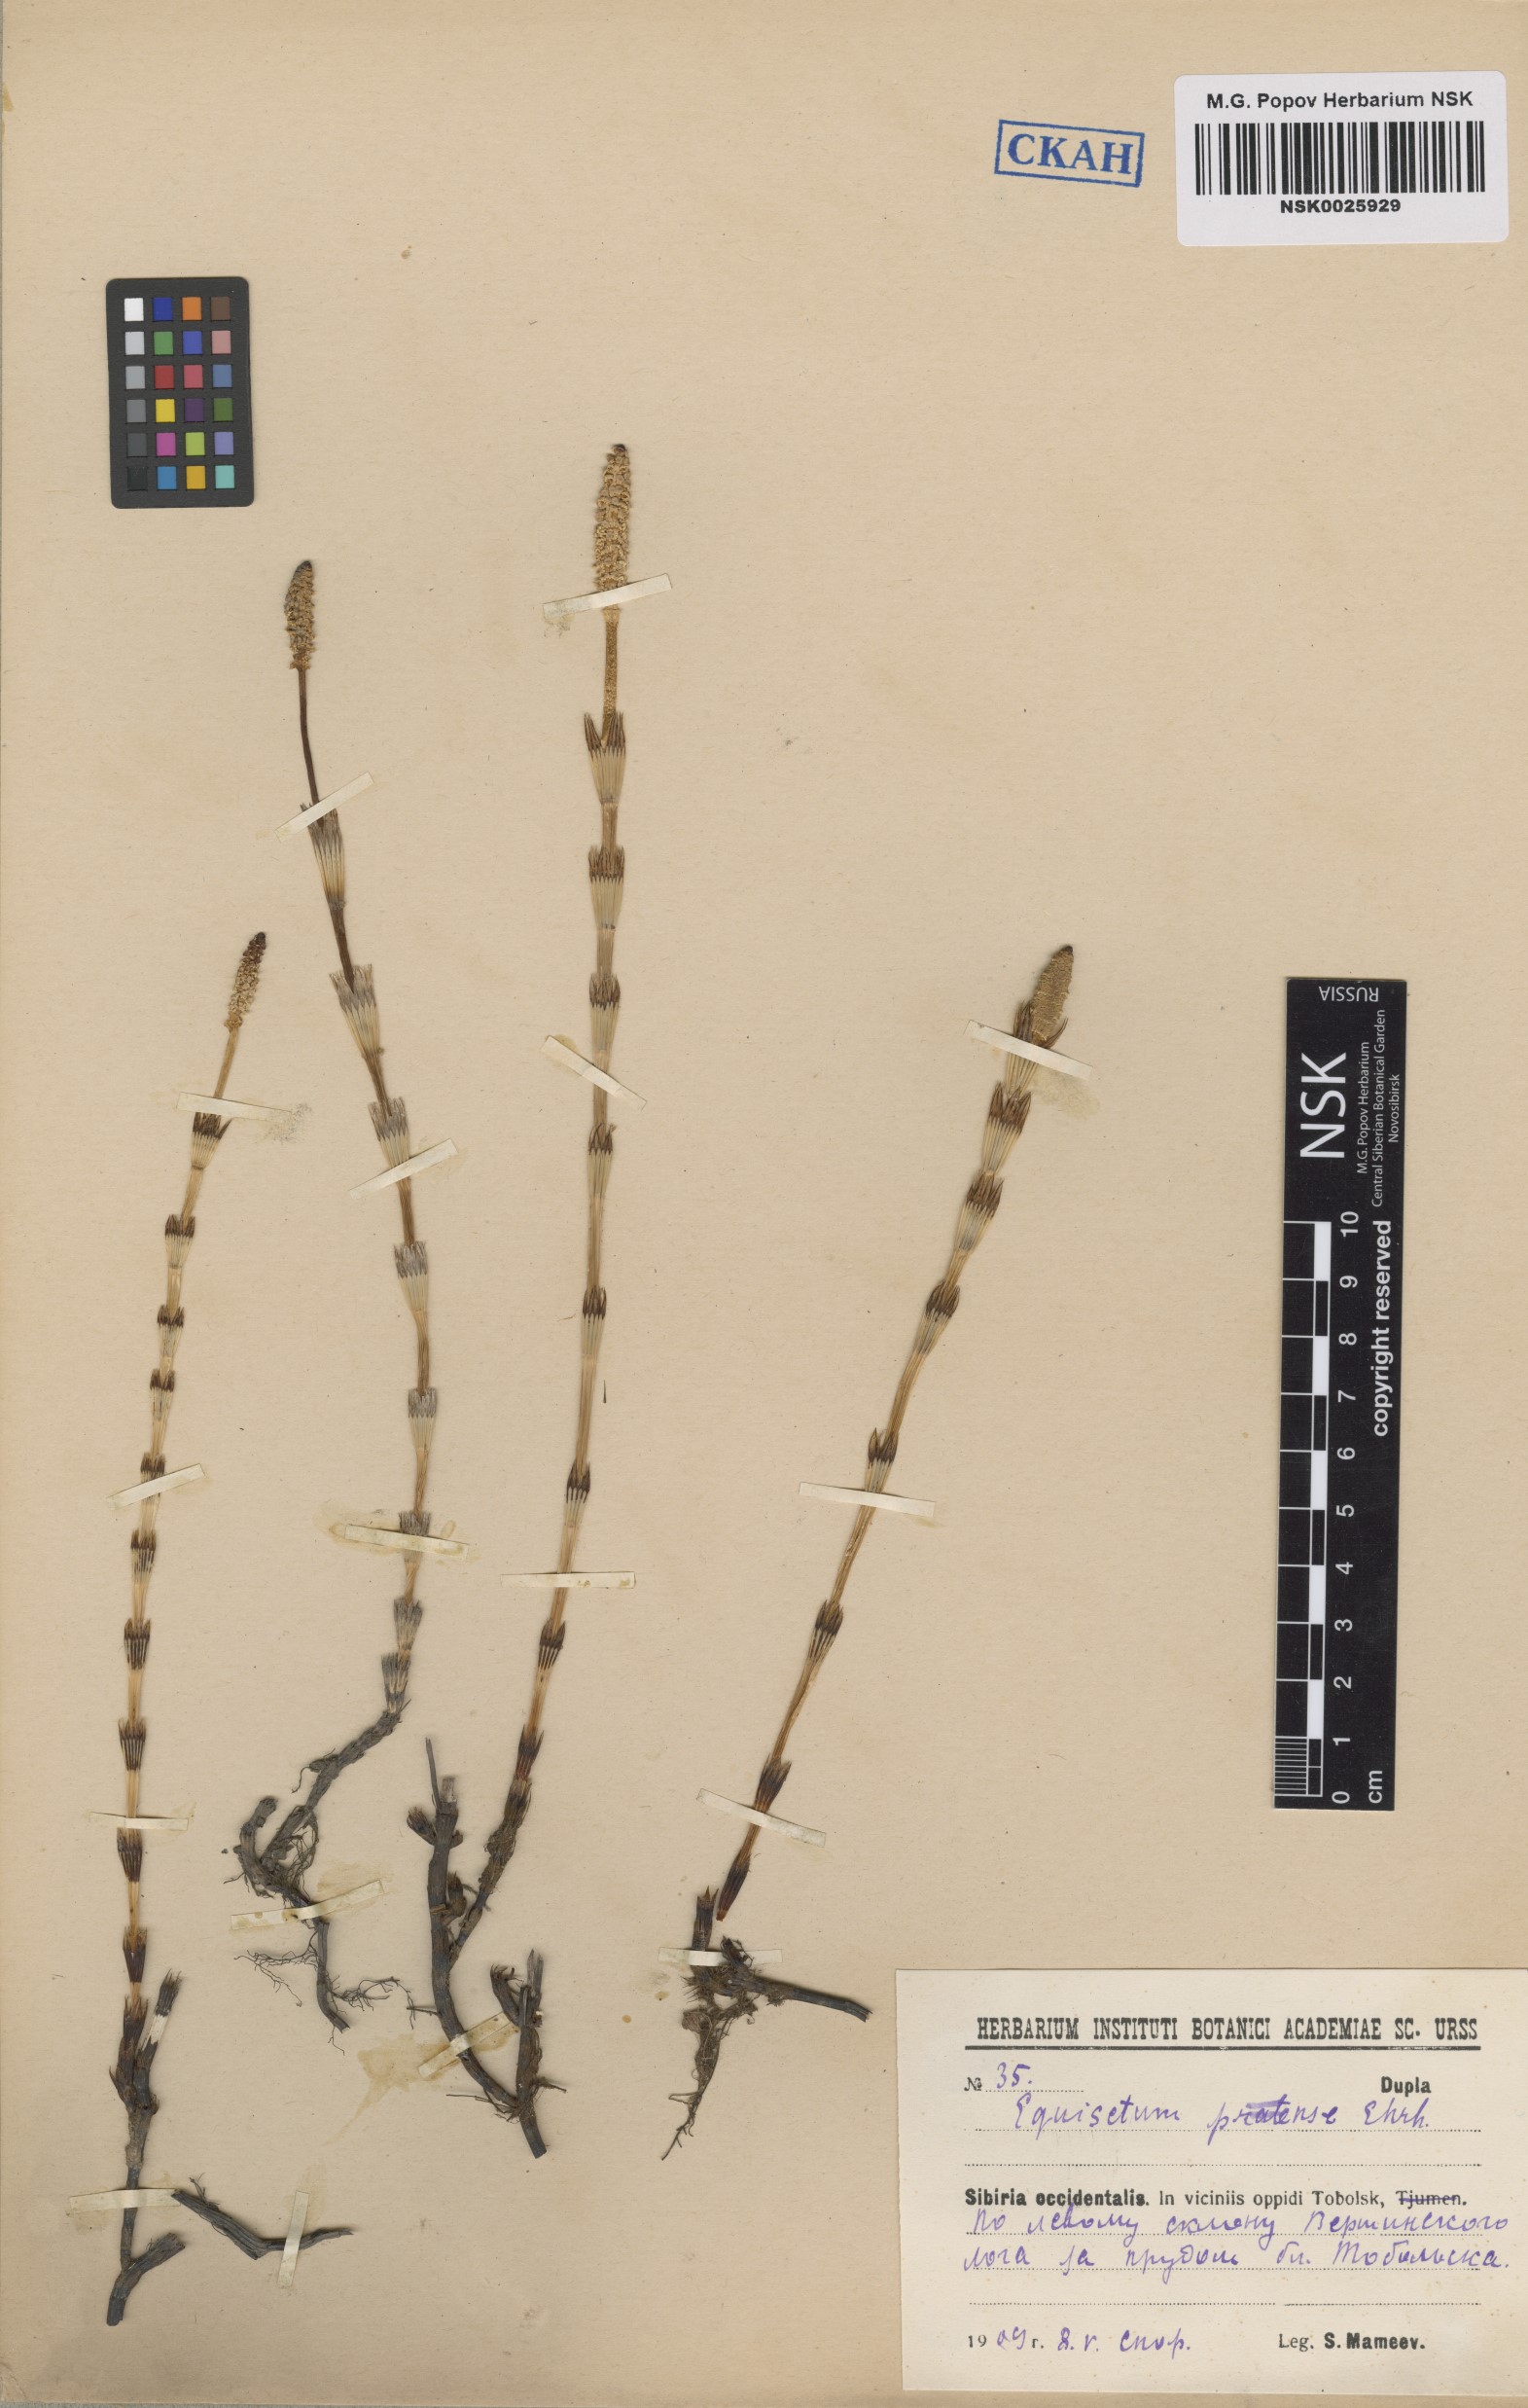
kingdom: Plantae
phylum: Tracheophyta
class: Polypodiopsida
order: Equisetales
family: Equisetaceae
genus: Equisetum
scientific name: Equisetum pratense
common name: Meadow horsetail
